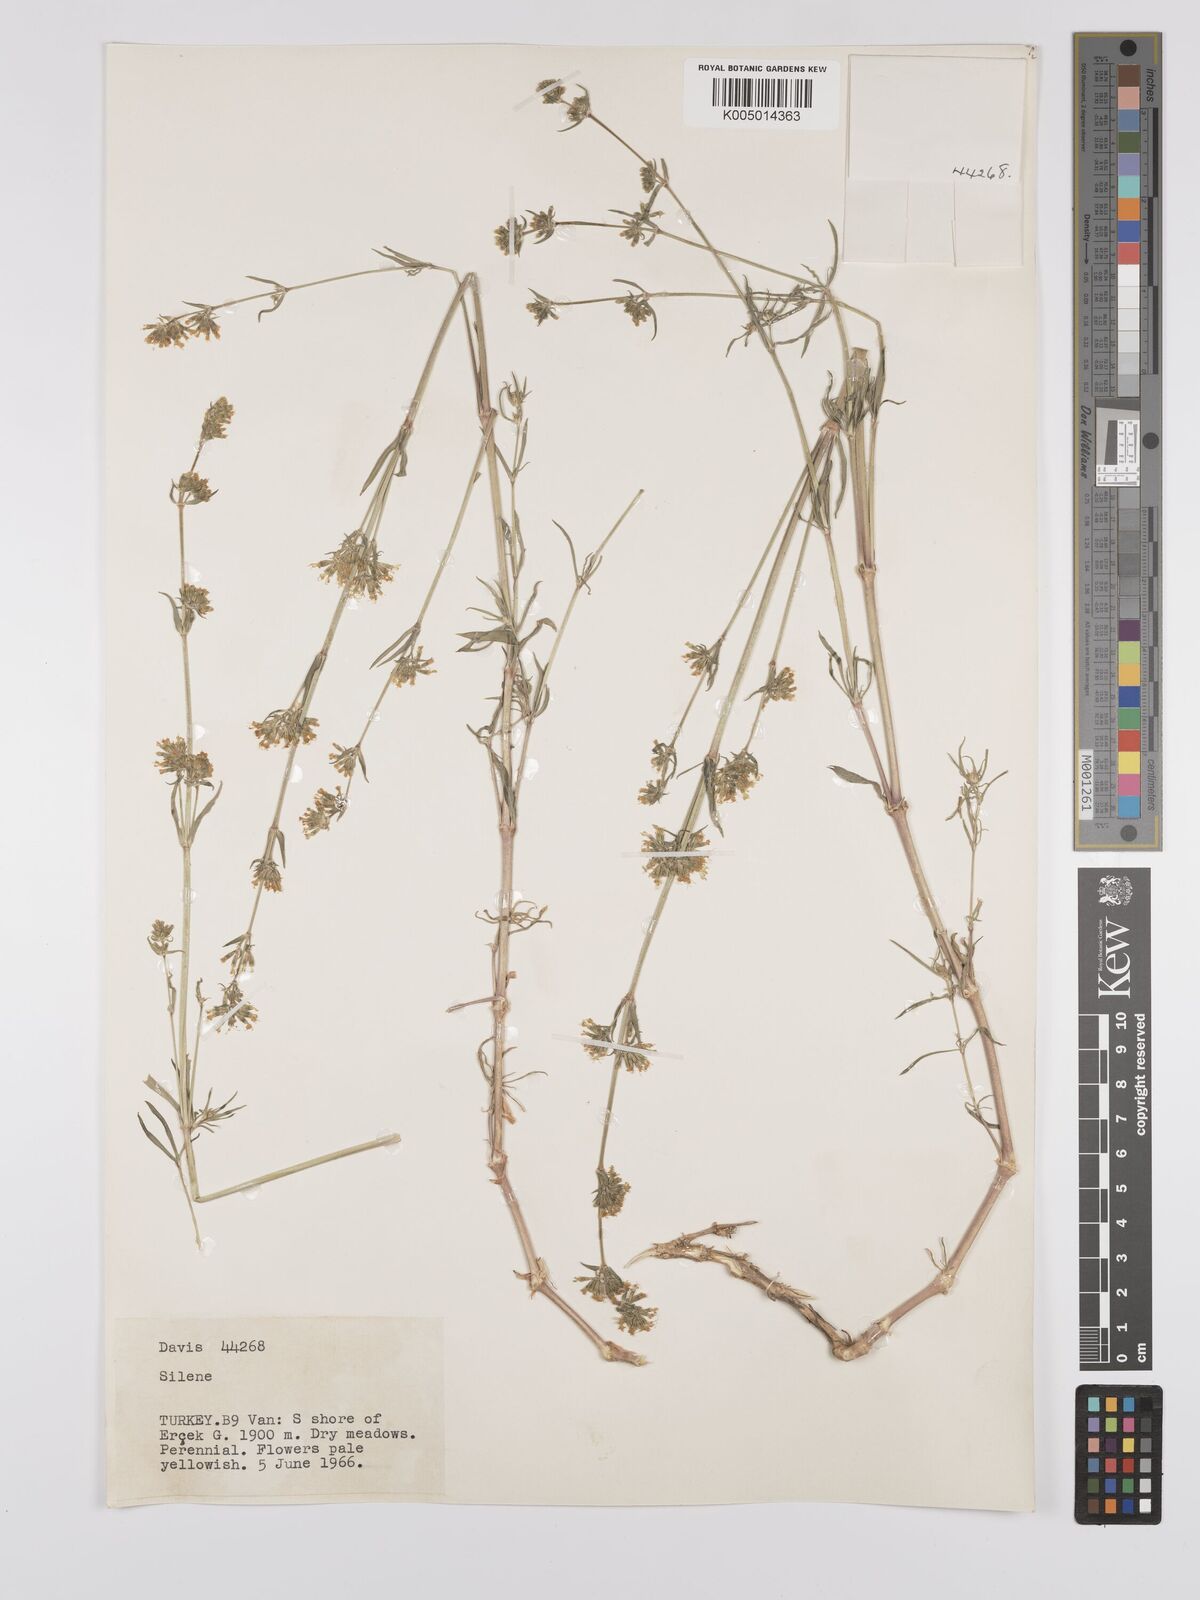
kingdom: Plantae
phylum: Tracheophyta
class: Magnoliopsida
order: Caryophyllales
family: Caryophyllaceae
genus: Silene
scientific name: Silene
